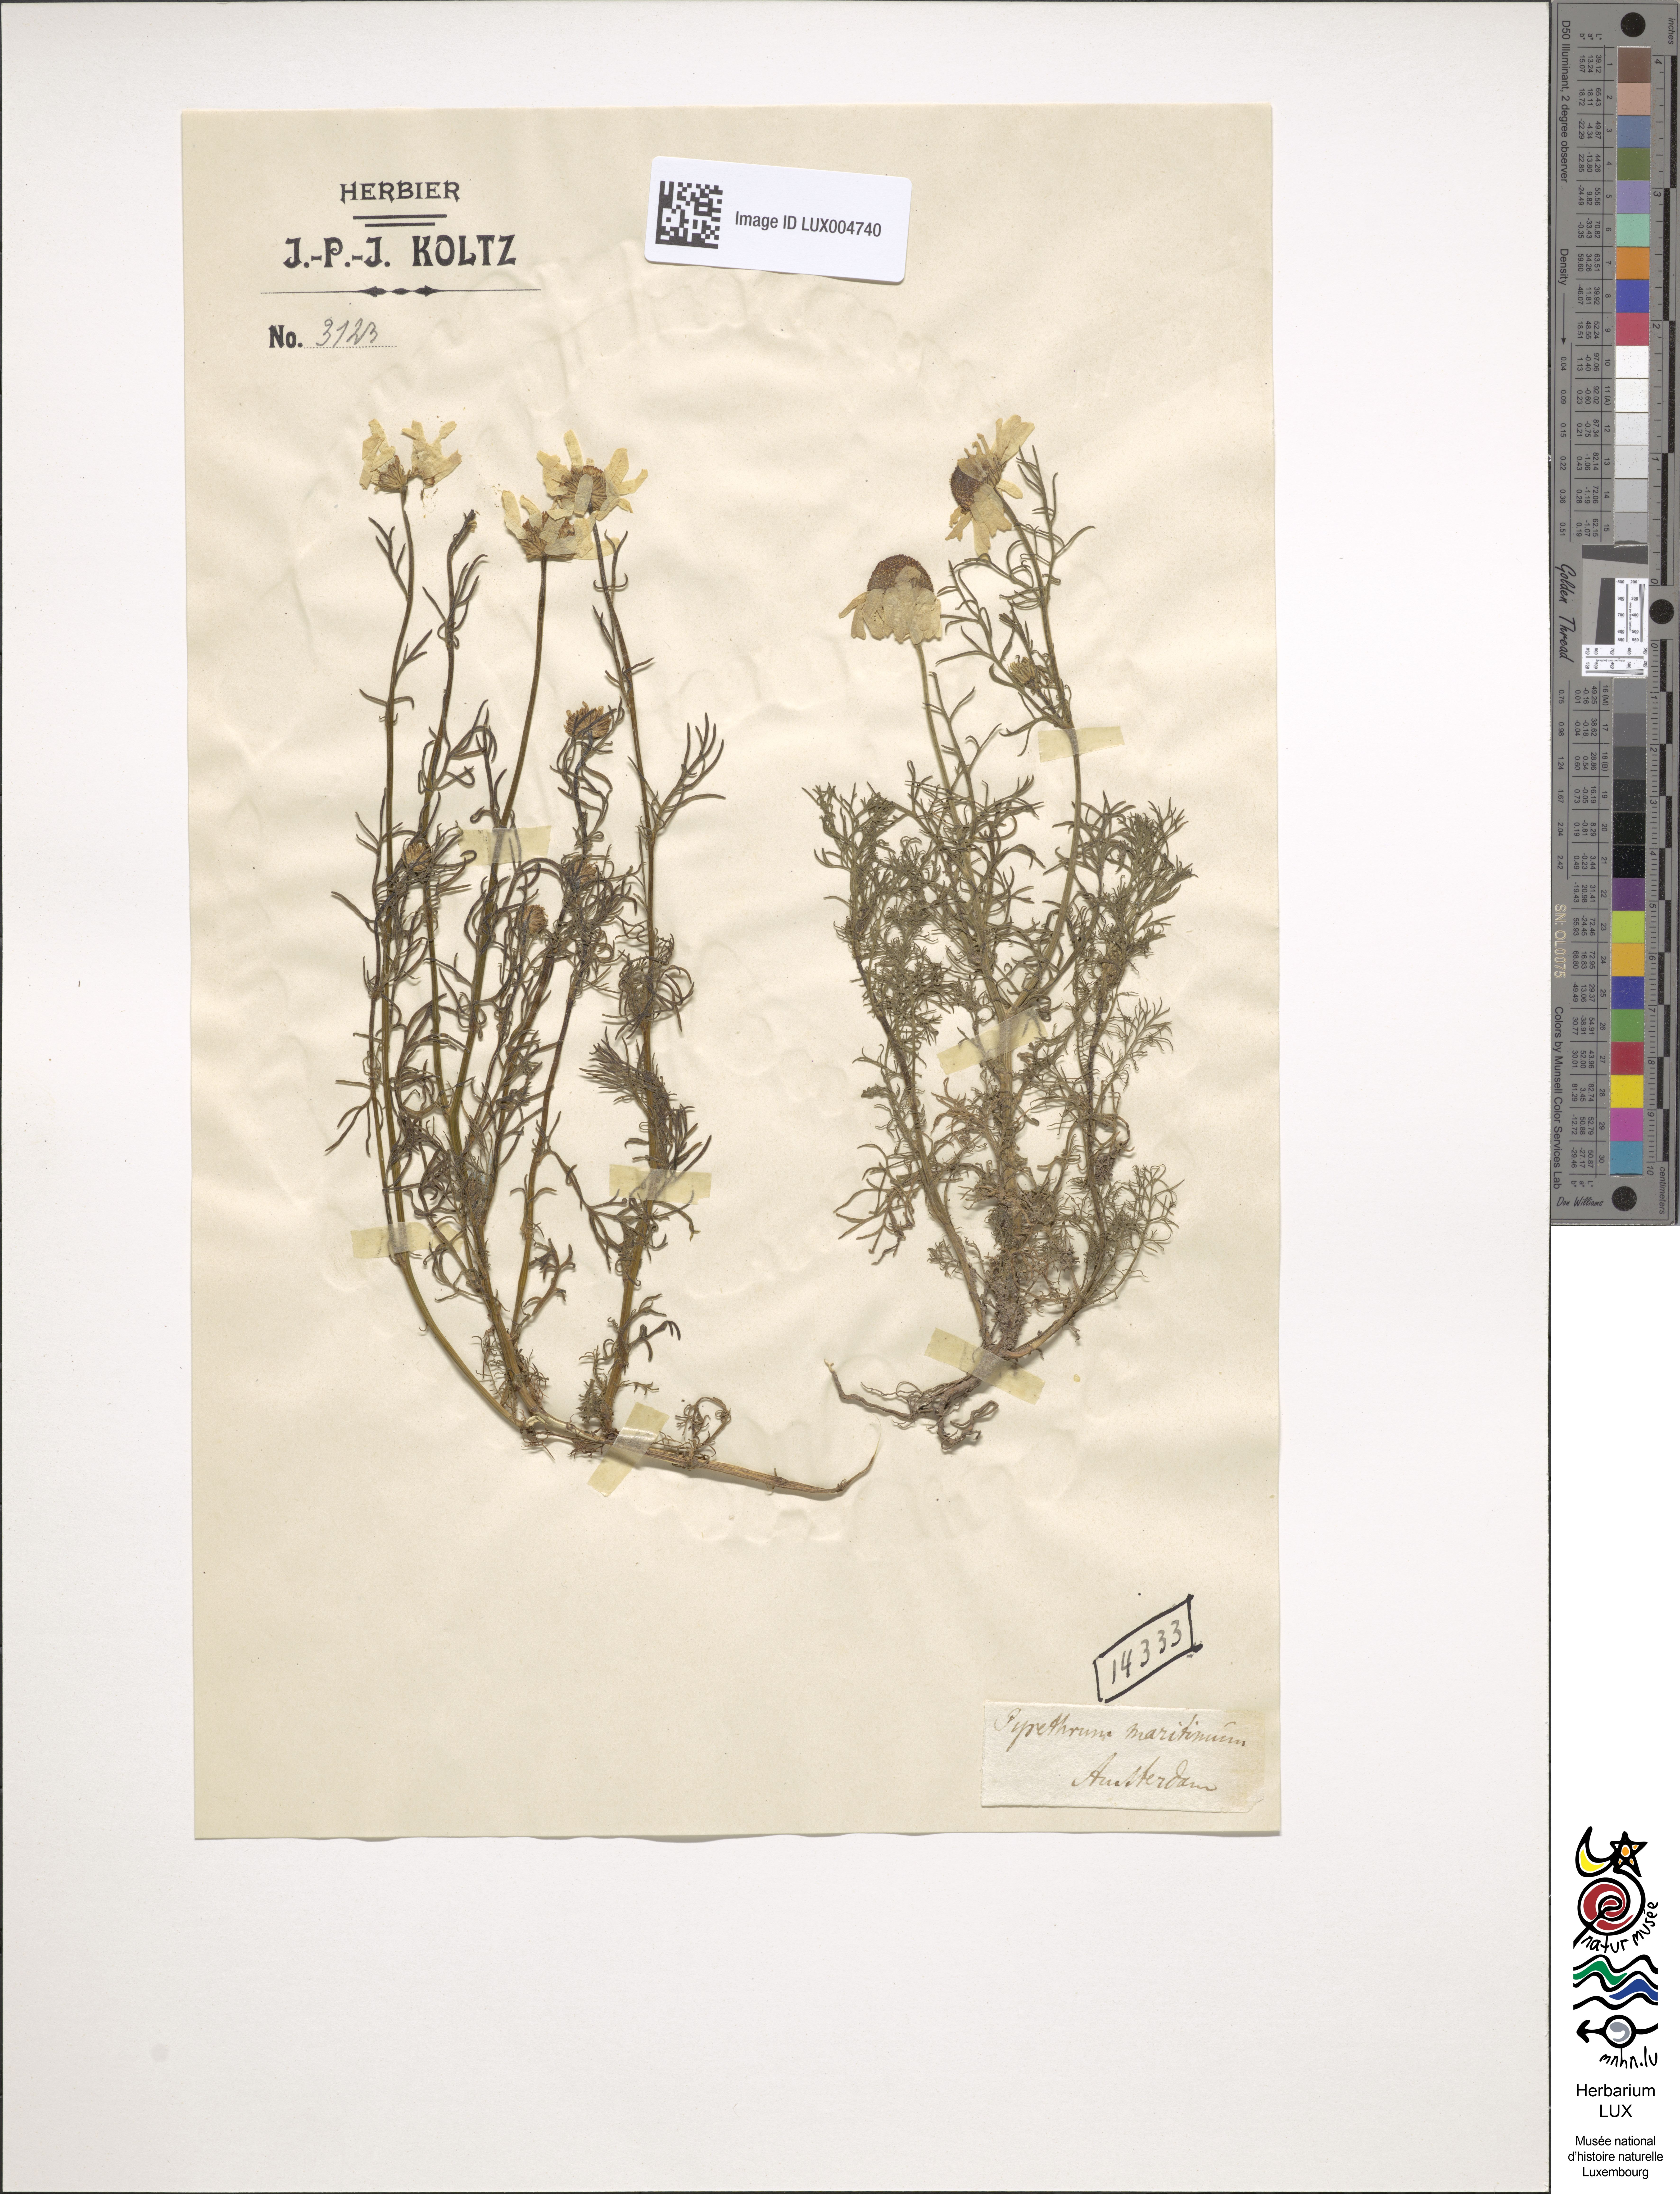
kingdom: Plantae
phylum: Tracheophyta
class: Magnoliopsida
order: Asterales
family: Asteraceae
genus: Tripleurospermum
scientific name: Tripleurospermum maritimum
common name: Sea mayweed
